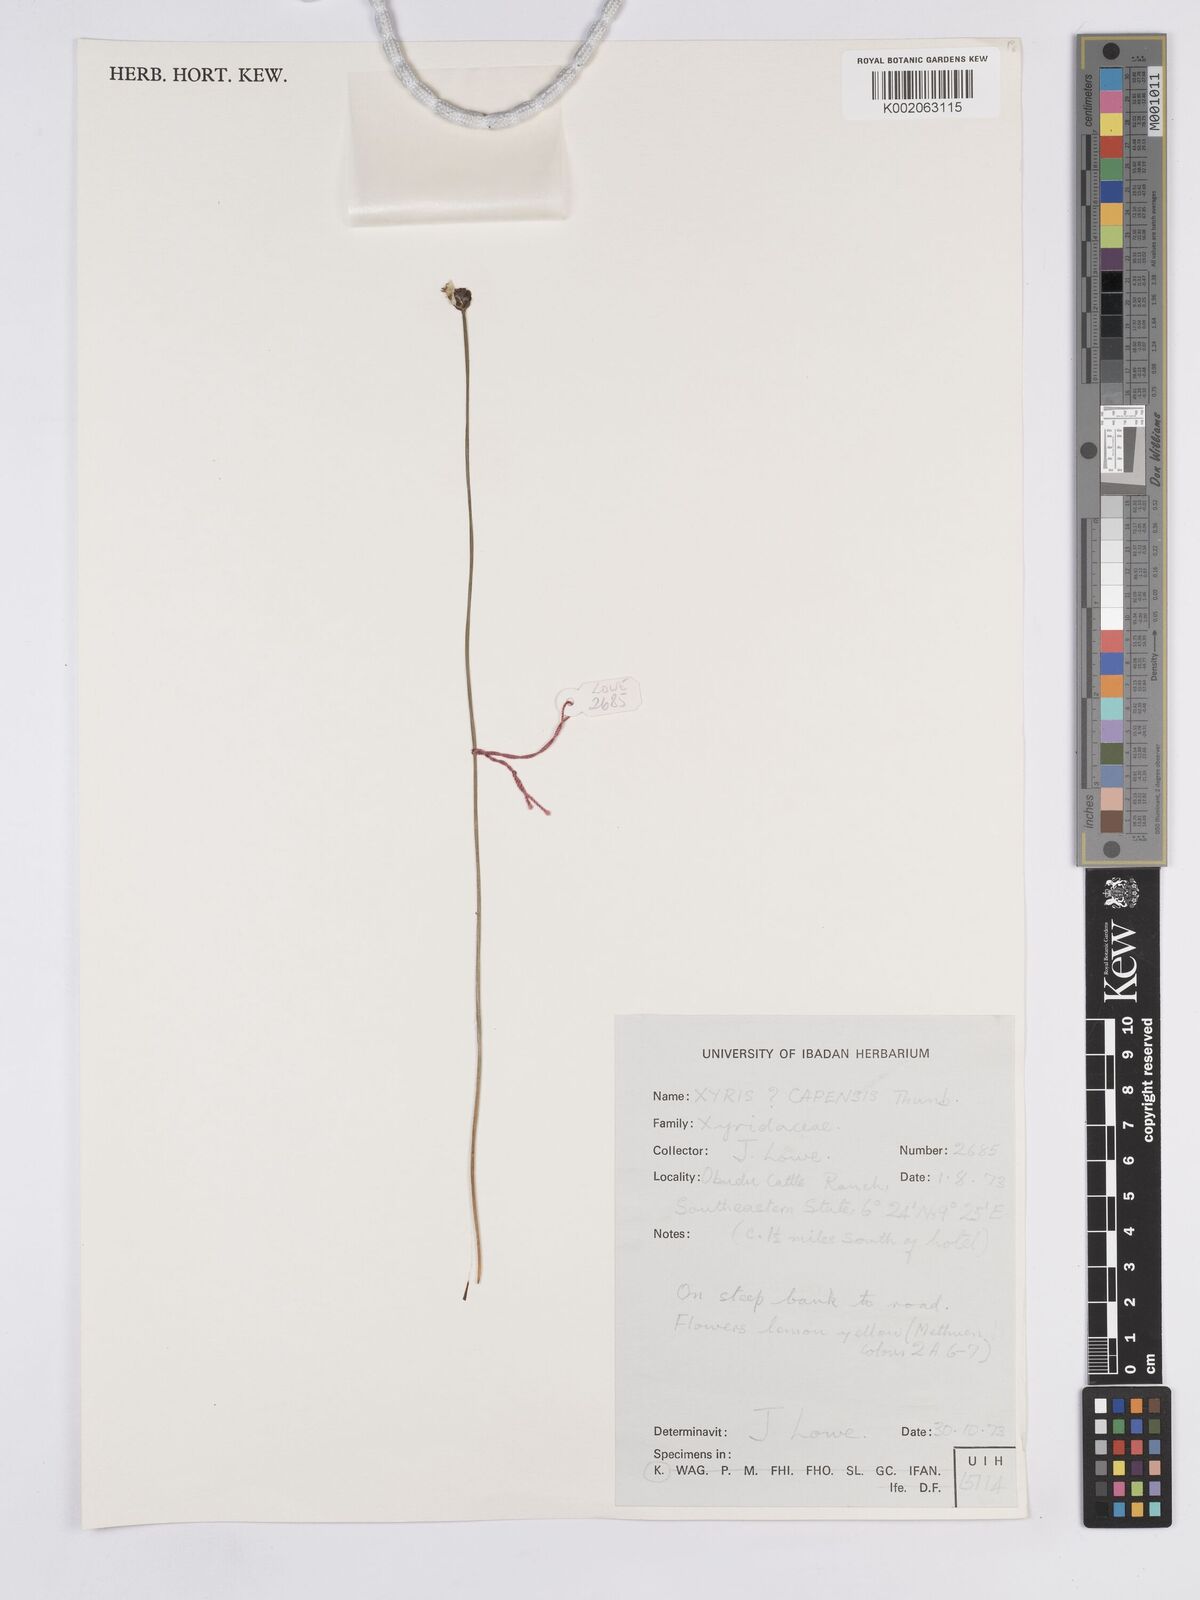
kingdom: Plantae
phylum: Tracheophyta
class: Liliopsida
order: Poales
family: Xyridaceae
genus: Xyris
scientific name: Xyris capensis
